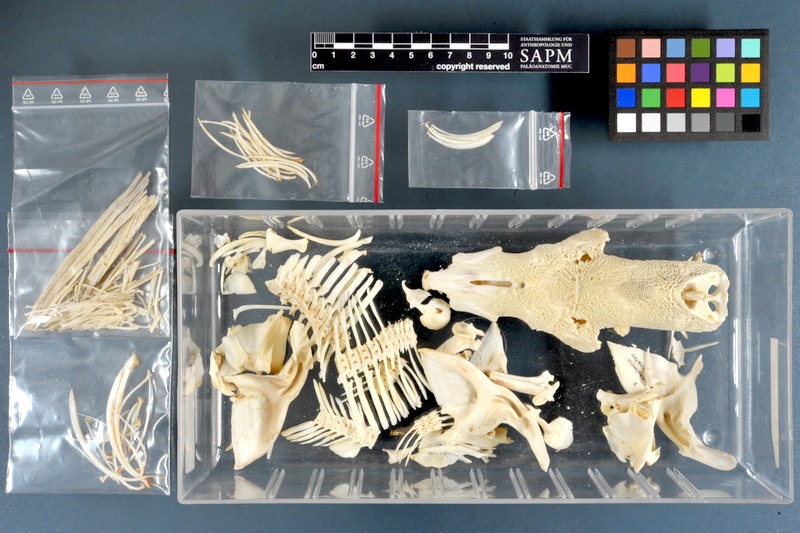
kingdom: Animalia
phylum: Chordata
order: Siluriformes
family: Mochokidae
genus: Synodontis
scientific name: Synodontis serratus
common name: Shield-head catfish
